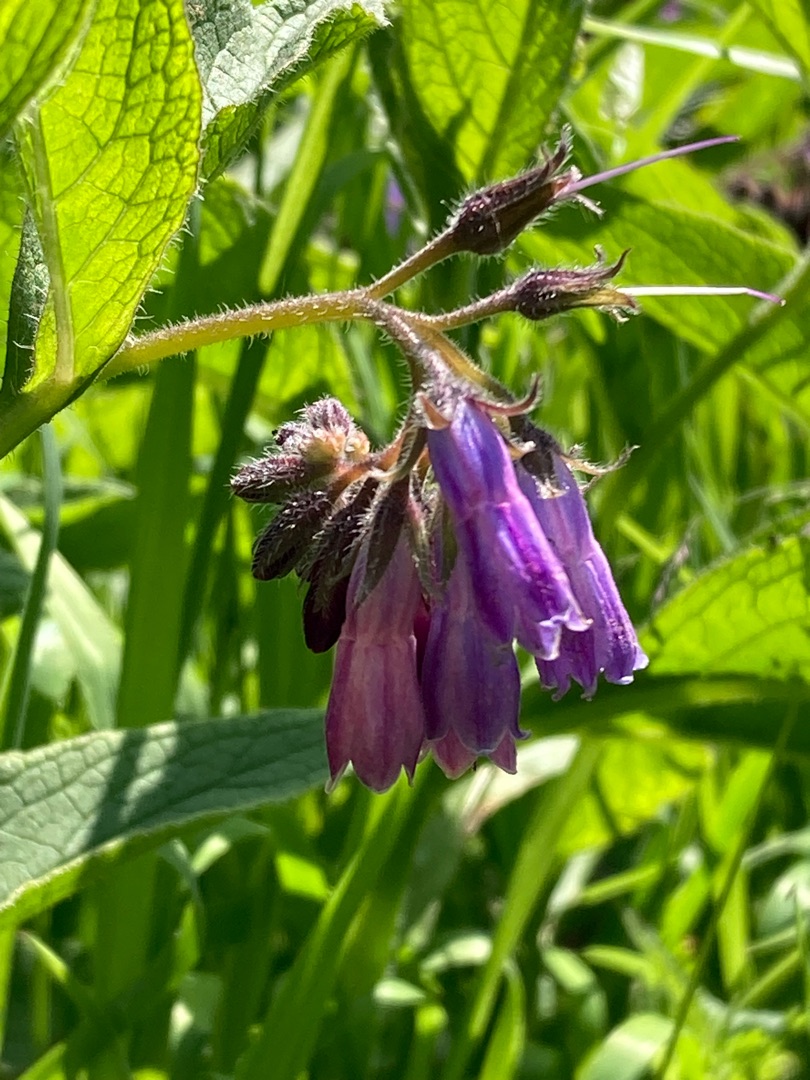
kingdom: Plantae
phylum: Tracheophyta
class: Magnoliopsida
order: Boraginales
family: Boraginaceae
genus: Symphytum
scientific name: Symphytum uplandicum
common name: Foder-kulsukker
